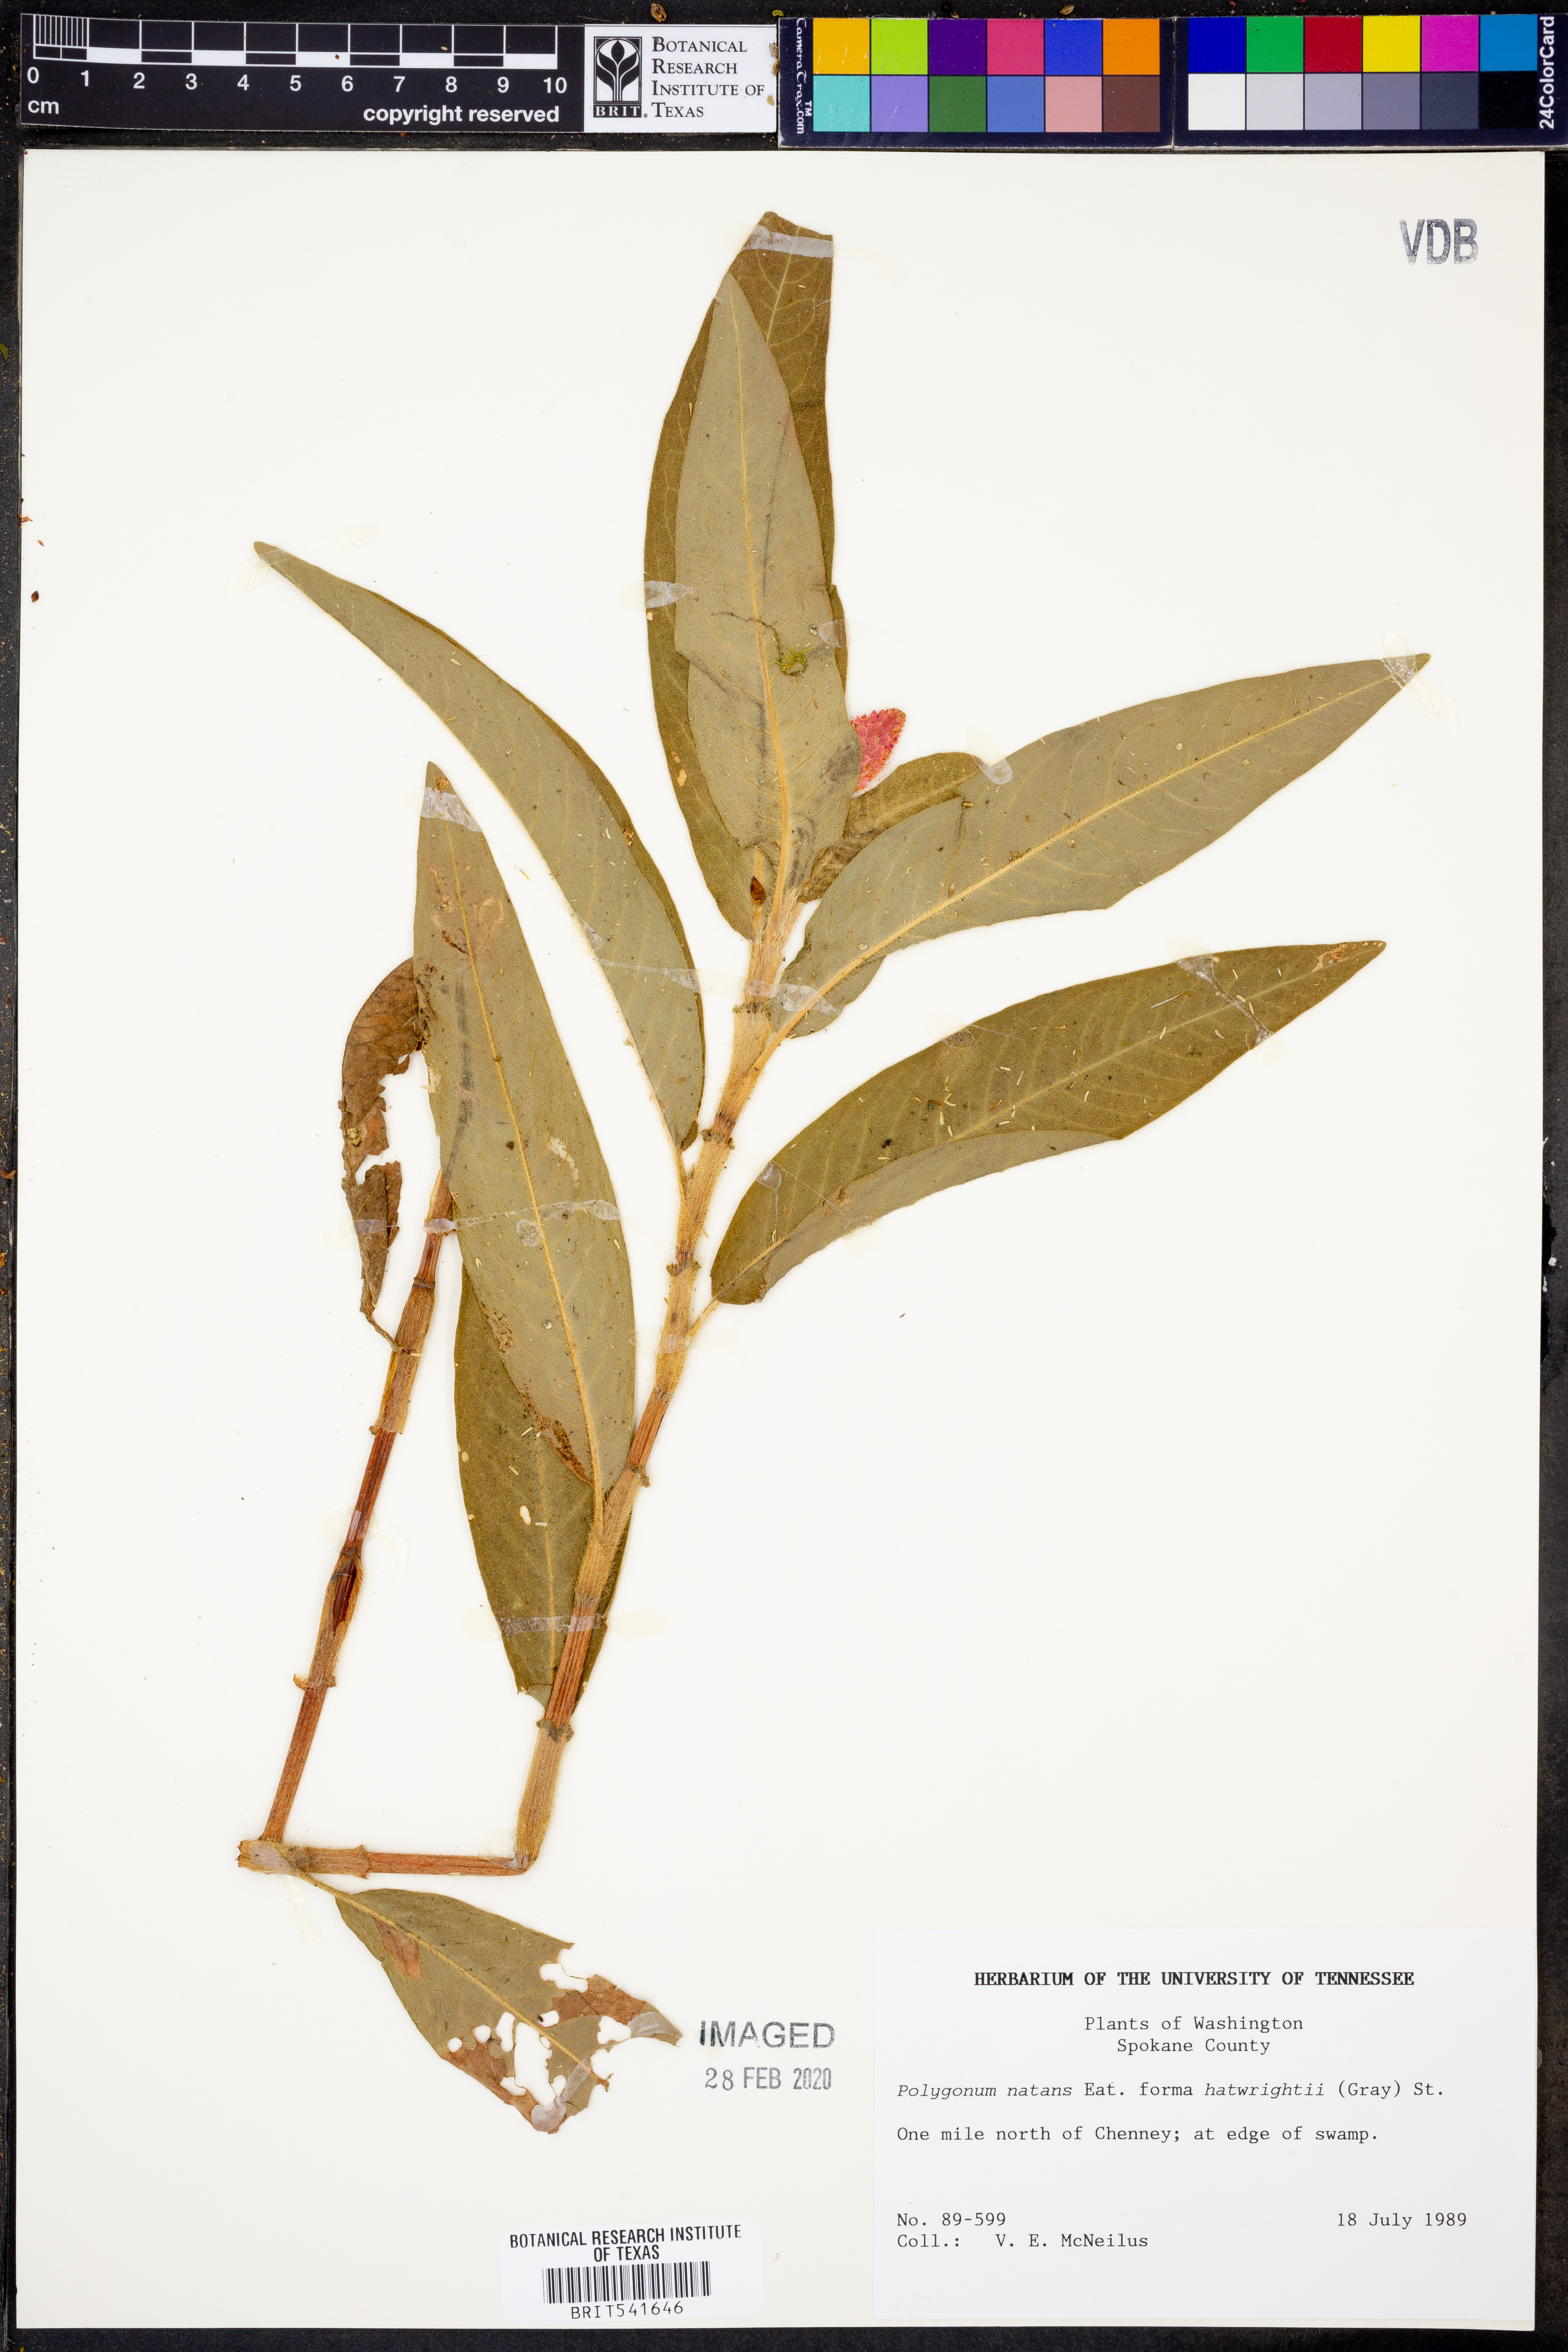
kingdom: Plantae
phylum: Tracheophyta
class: Magnoliopsida
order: Caryophyllales
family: Polygonaceae
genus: Persicaria
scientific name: Persicaria amphibia
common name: Amphibious bistort
